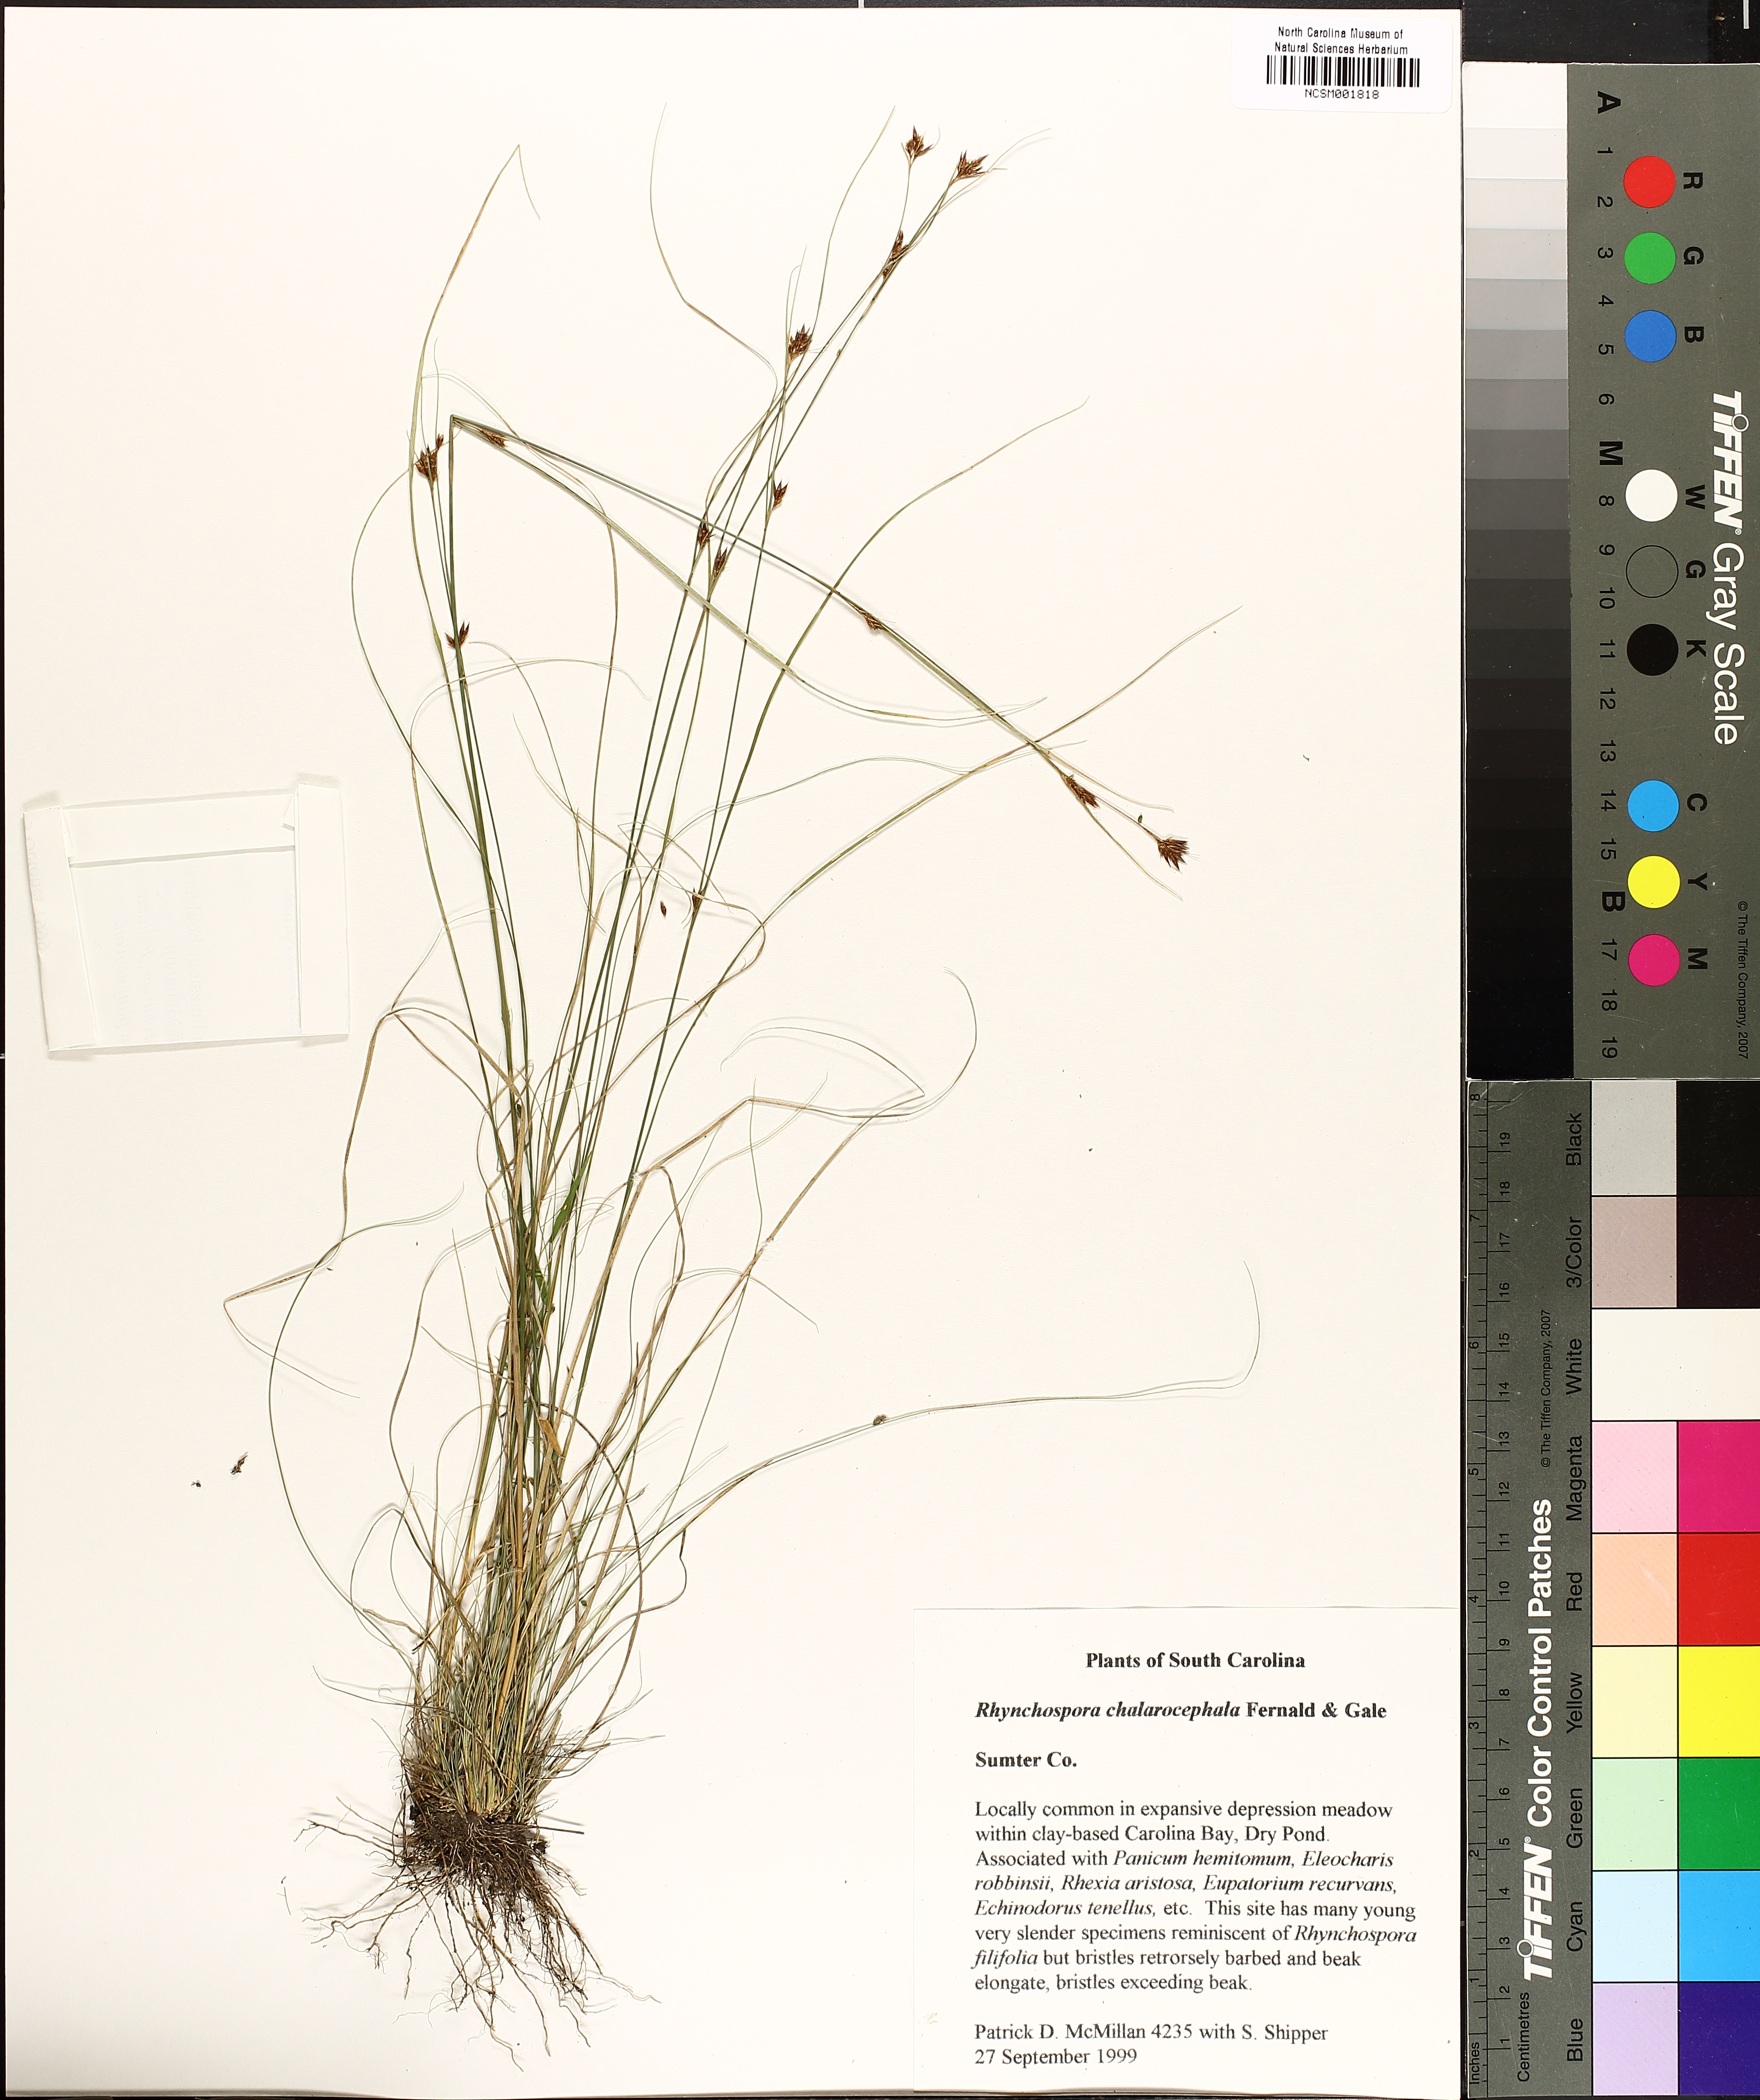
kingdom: Plantae
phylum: Tracheophyta
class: Liliopsida
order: Poales
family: Cyperaceae
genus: Rhynchospora
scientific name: Rhynchospora chalarocephala
